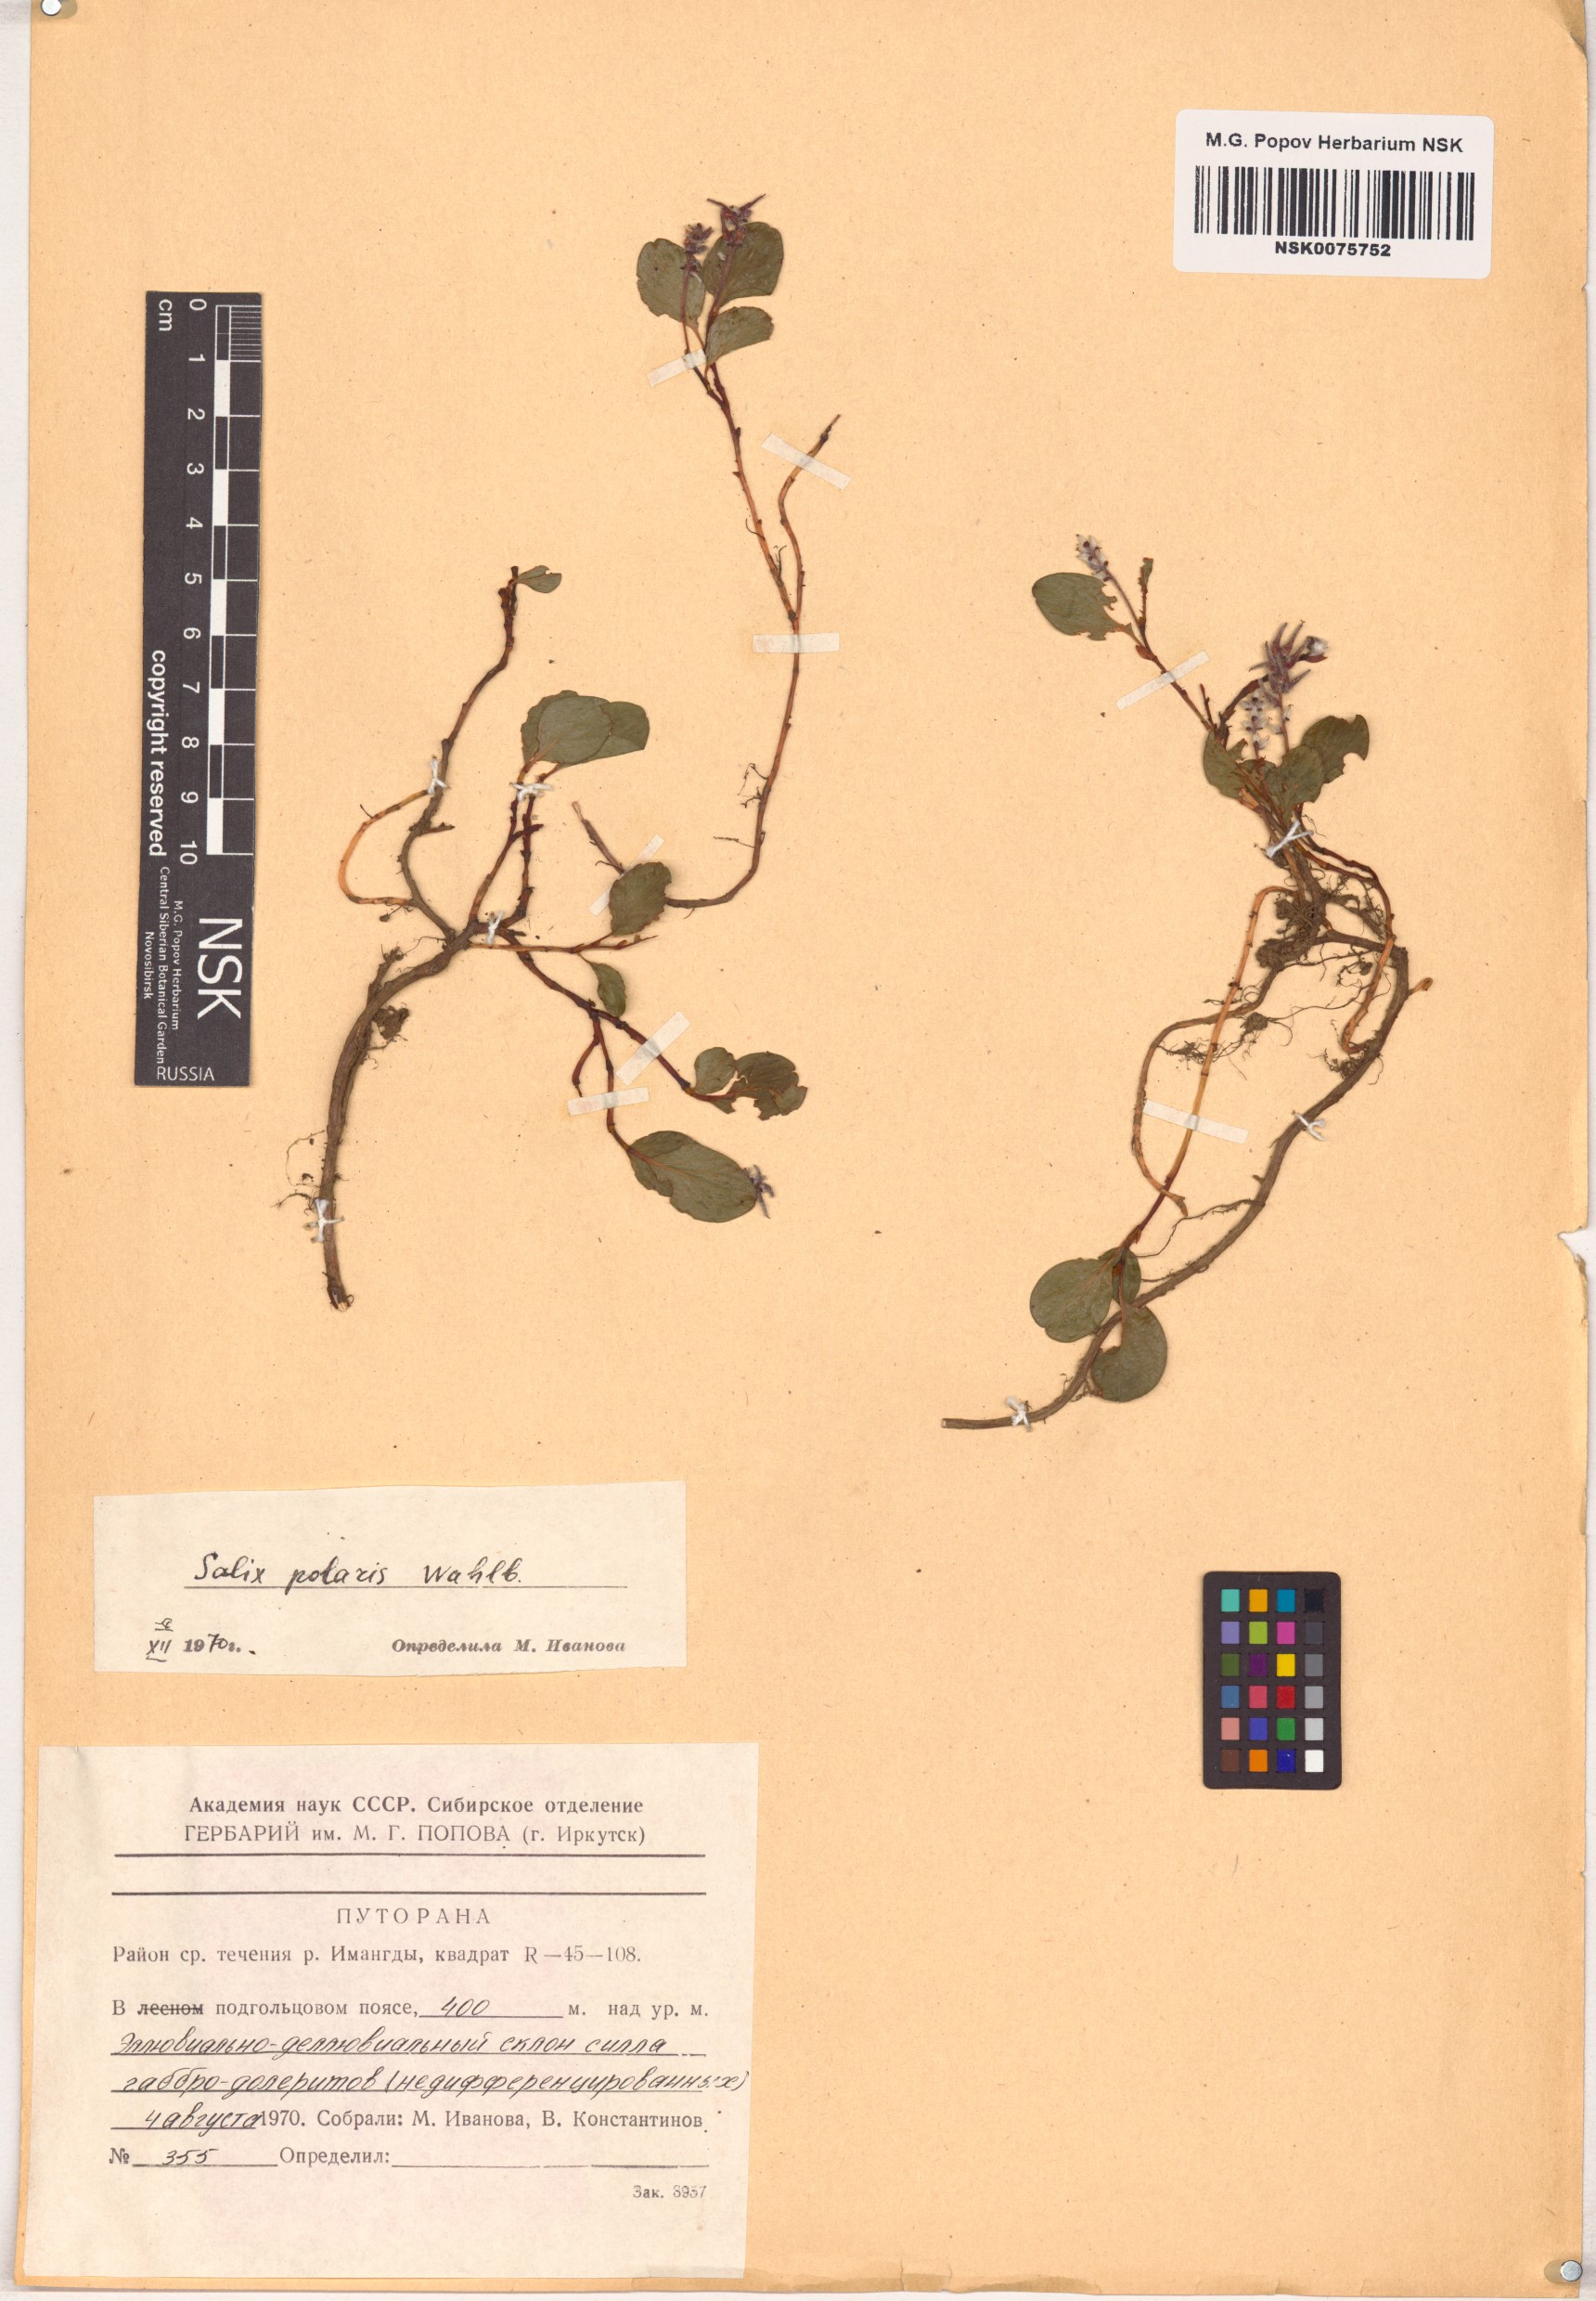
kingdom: Plantae
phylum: Tracheophyta
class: Magnoliopsida
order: Malpighiales
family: Salicaceae
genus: Salix
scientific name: Salix polaris
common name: Polar willow
